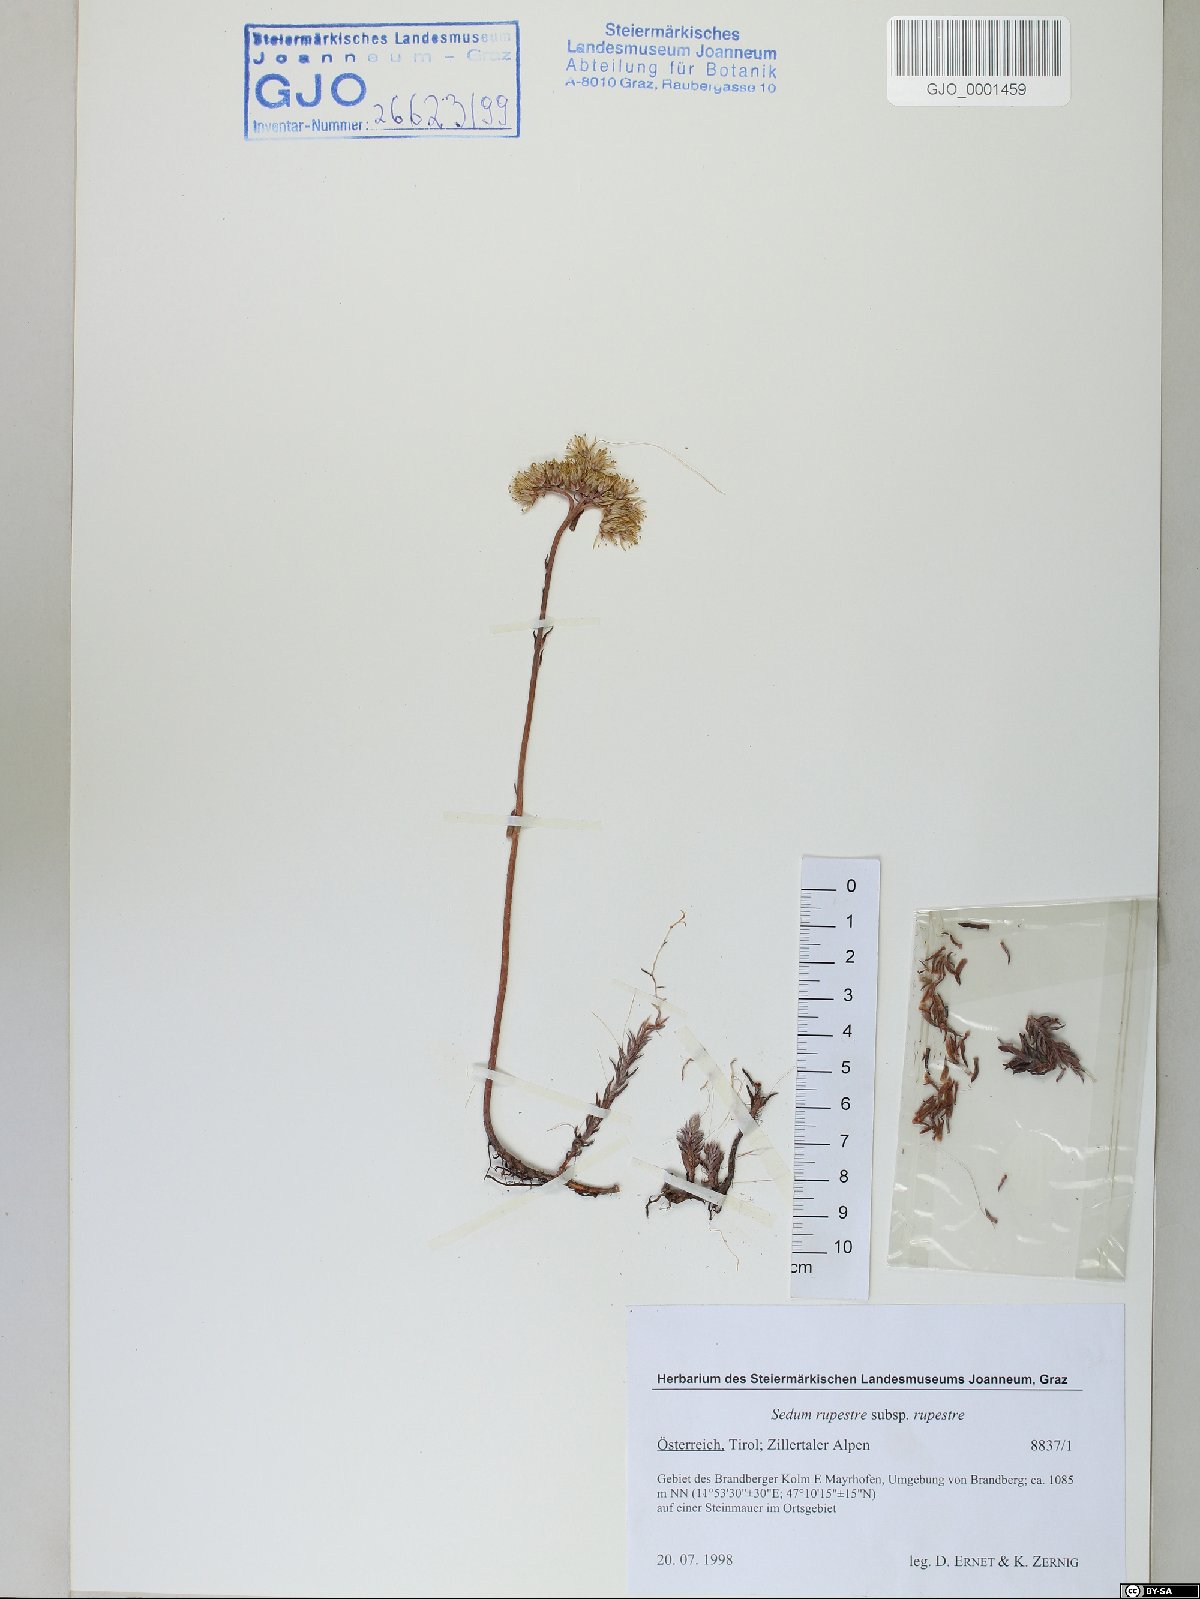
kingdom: Plantae
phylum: Tracheophyta
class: Magnoliopsida
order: Saxifragales
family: Crassulaceae
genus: Petrosedum
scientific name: Petrosedum rupestre
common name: Jenny's stonecrop
